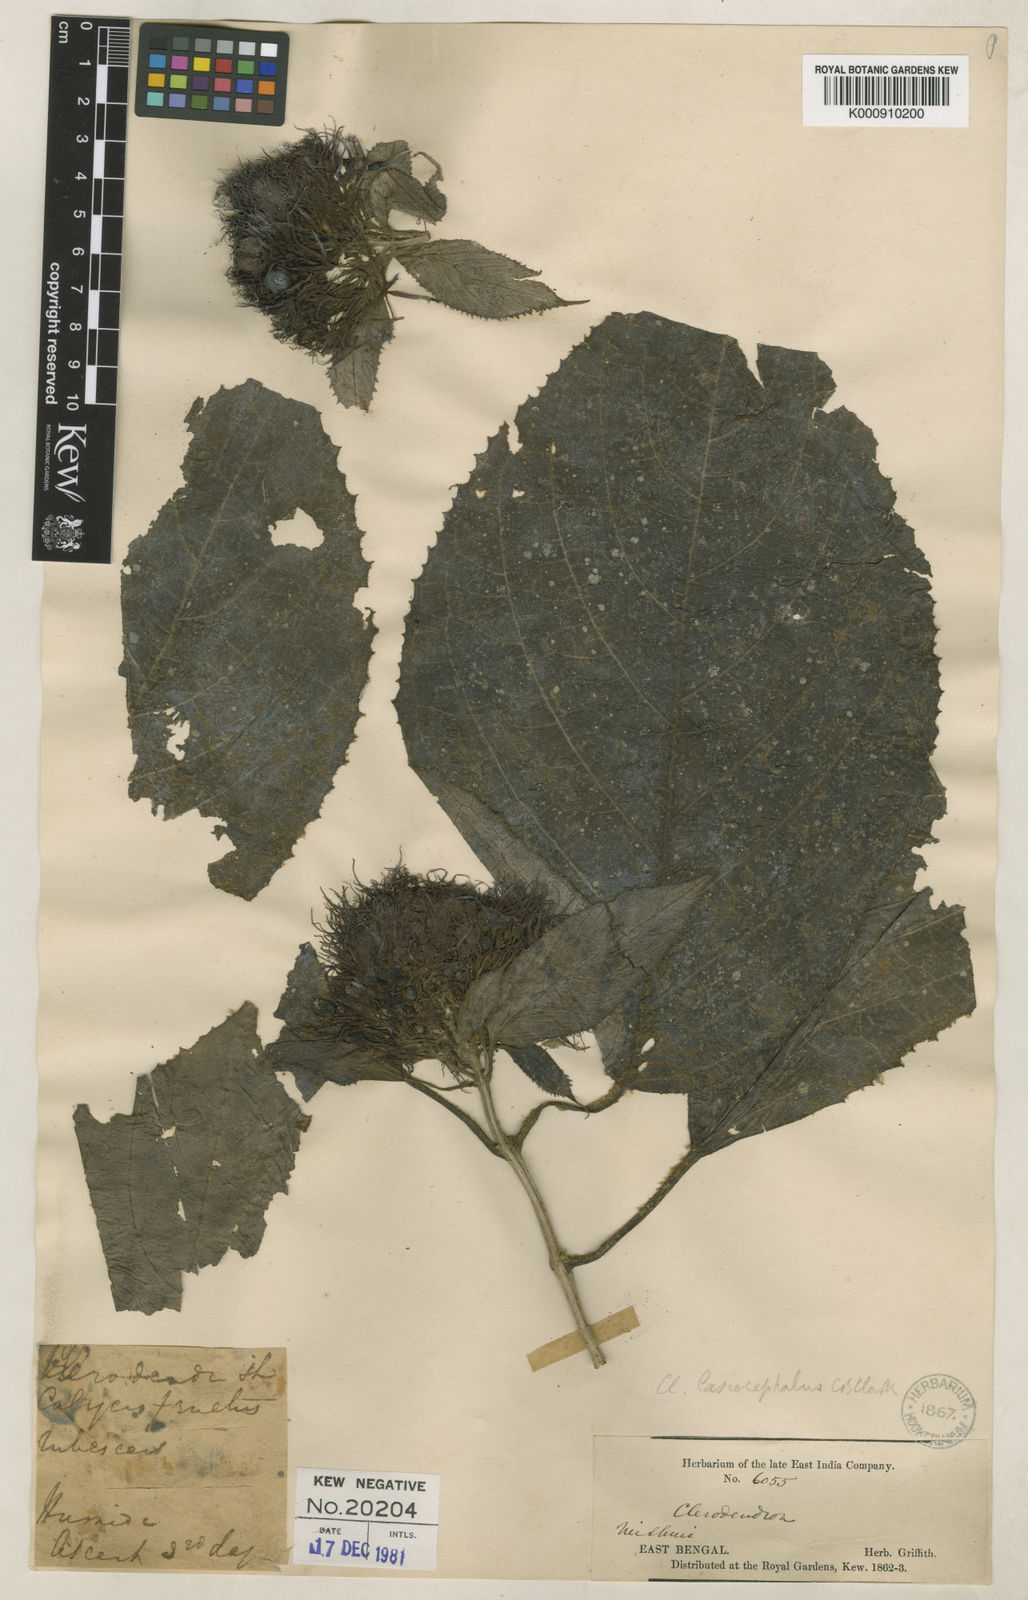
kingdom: Plantae
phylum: Tracheophyta
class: Magnoliopsida
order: Lamiales
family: Lamiaceae
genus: Clerodendrum
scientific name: Clerodendrum chinense
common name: Stickbush
